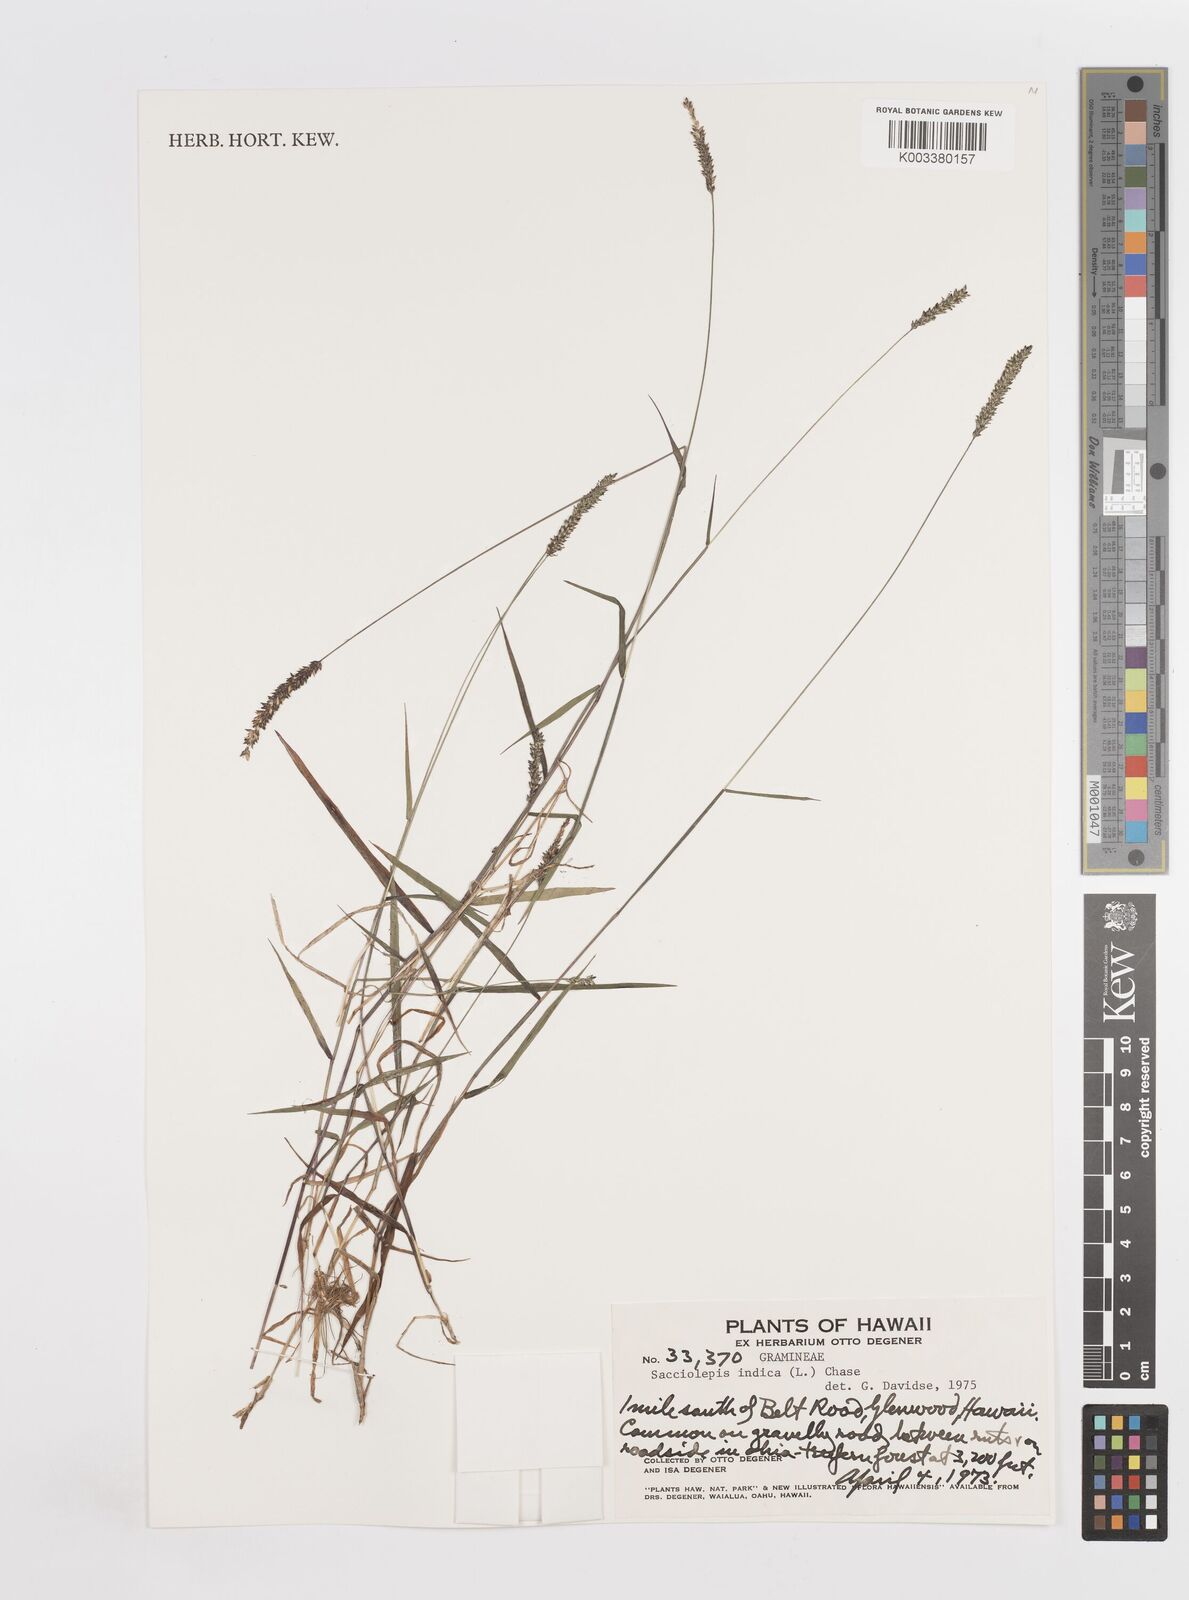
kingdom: Plantae
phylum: Tracheophyta
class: Liliopsida
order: Poales
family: Poaceae
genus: Sacciolepis
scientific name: Sacciolepis indica
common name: Glenwoodgrass
